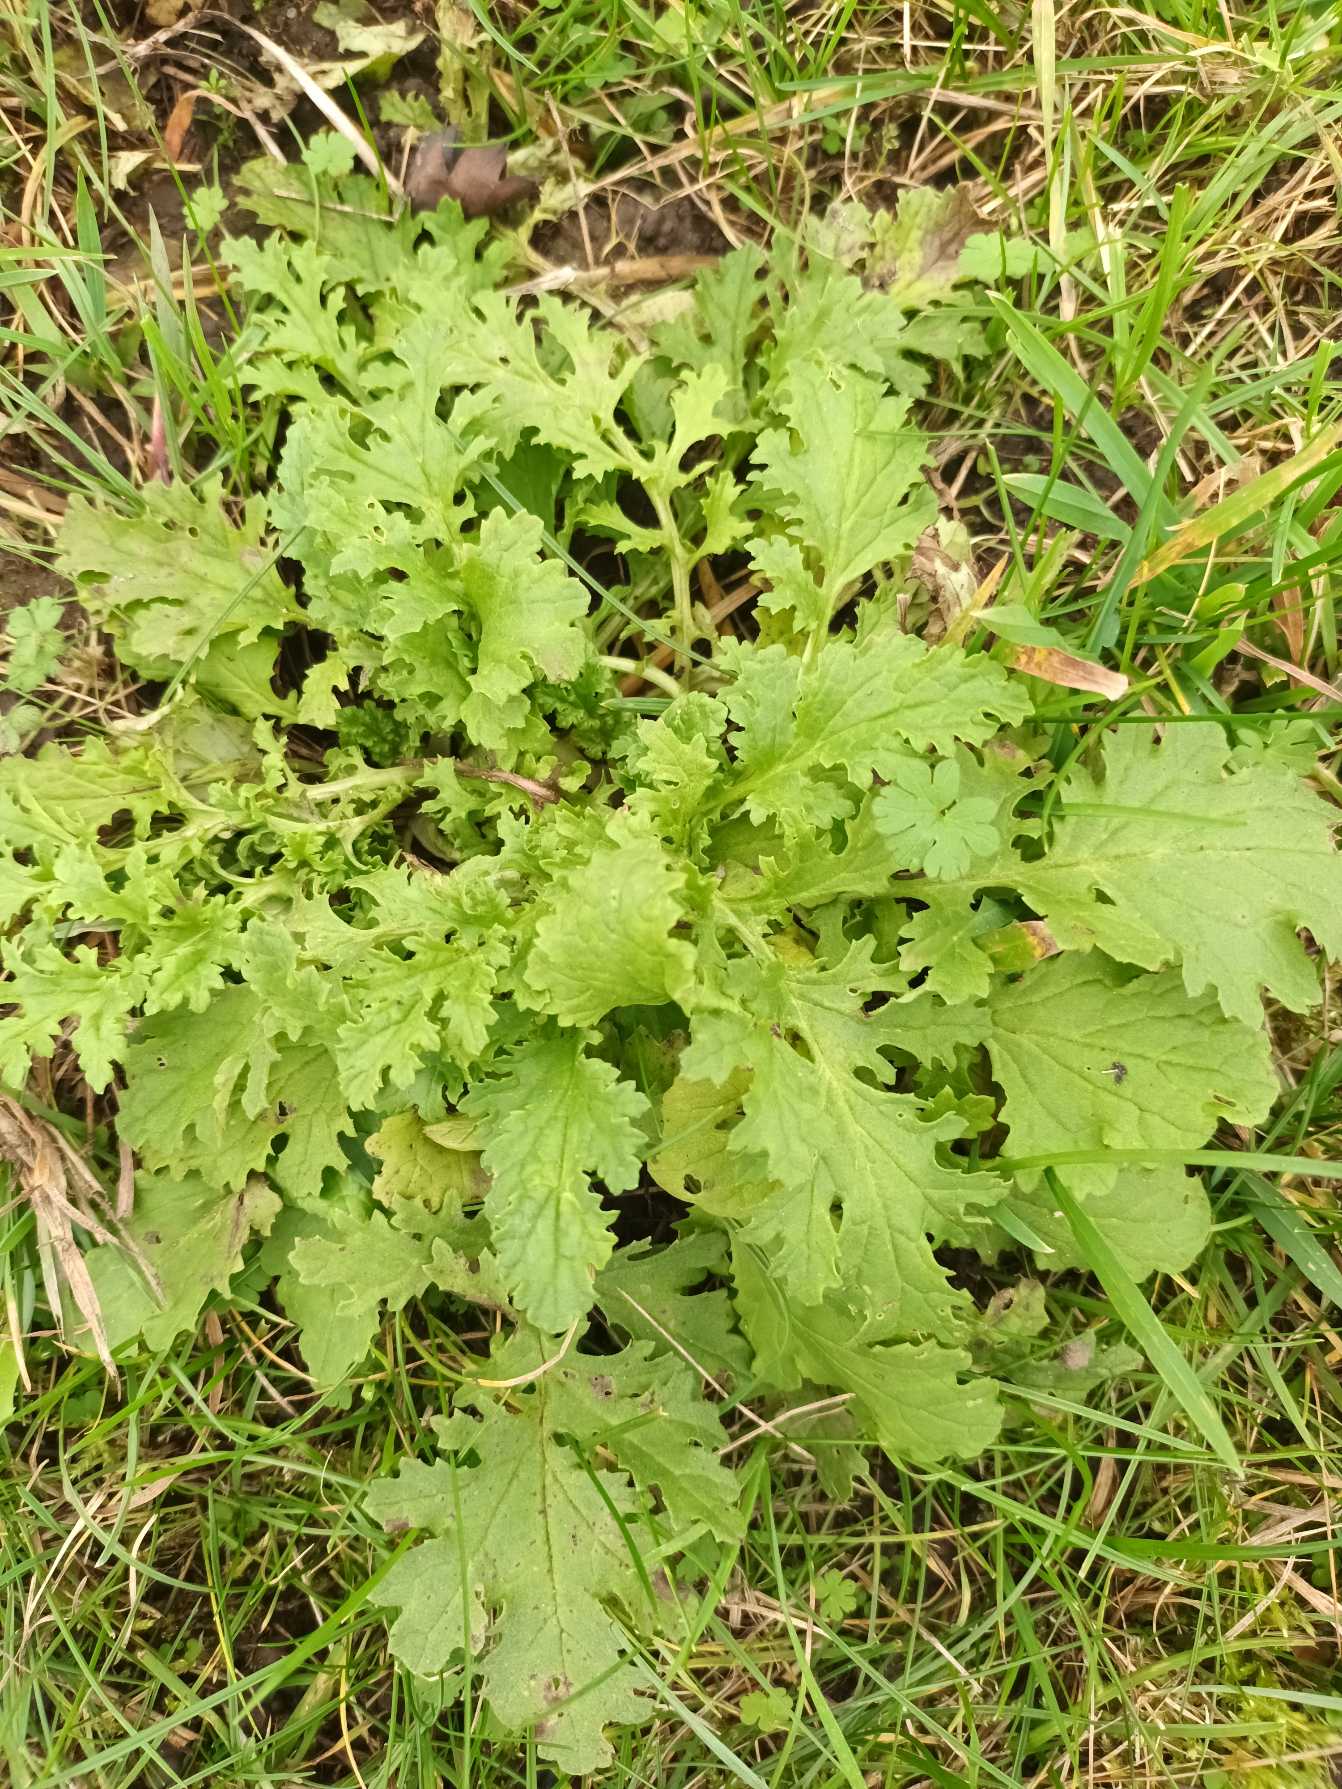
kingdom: Plantae
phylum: Tracheophyta
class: Magnoliopsida
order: Asterales
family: Asteraceae
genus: Jacobaea
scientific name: Jacobaea vulgaris
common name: Eng-brandbæger
